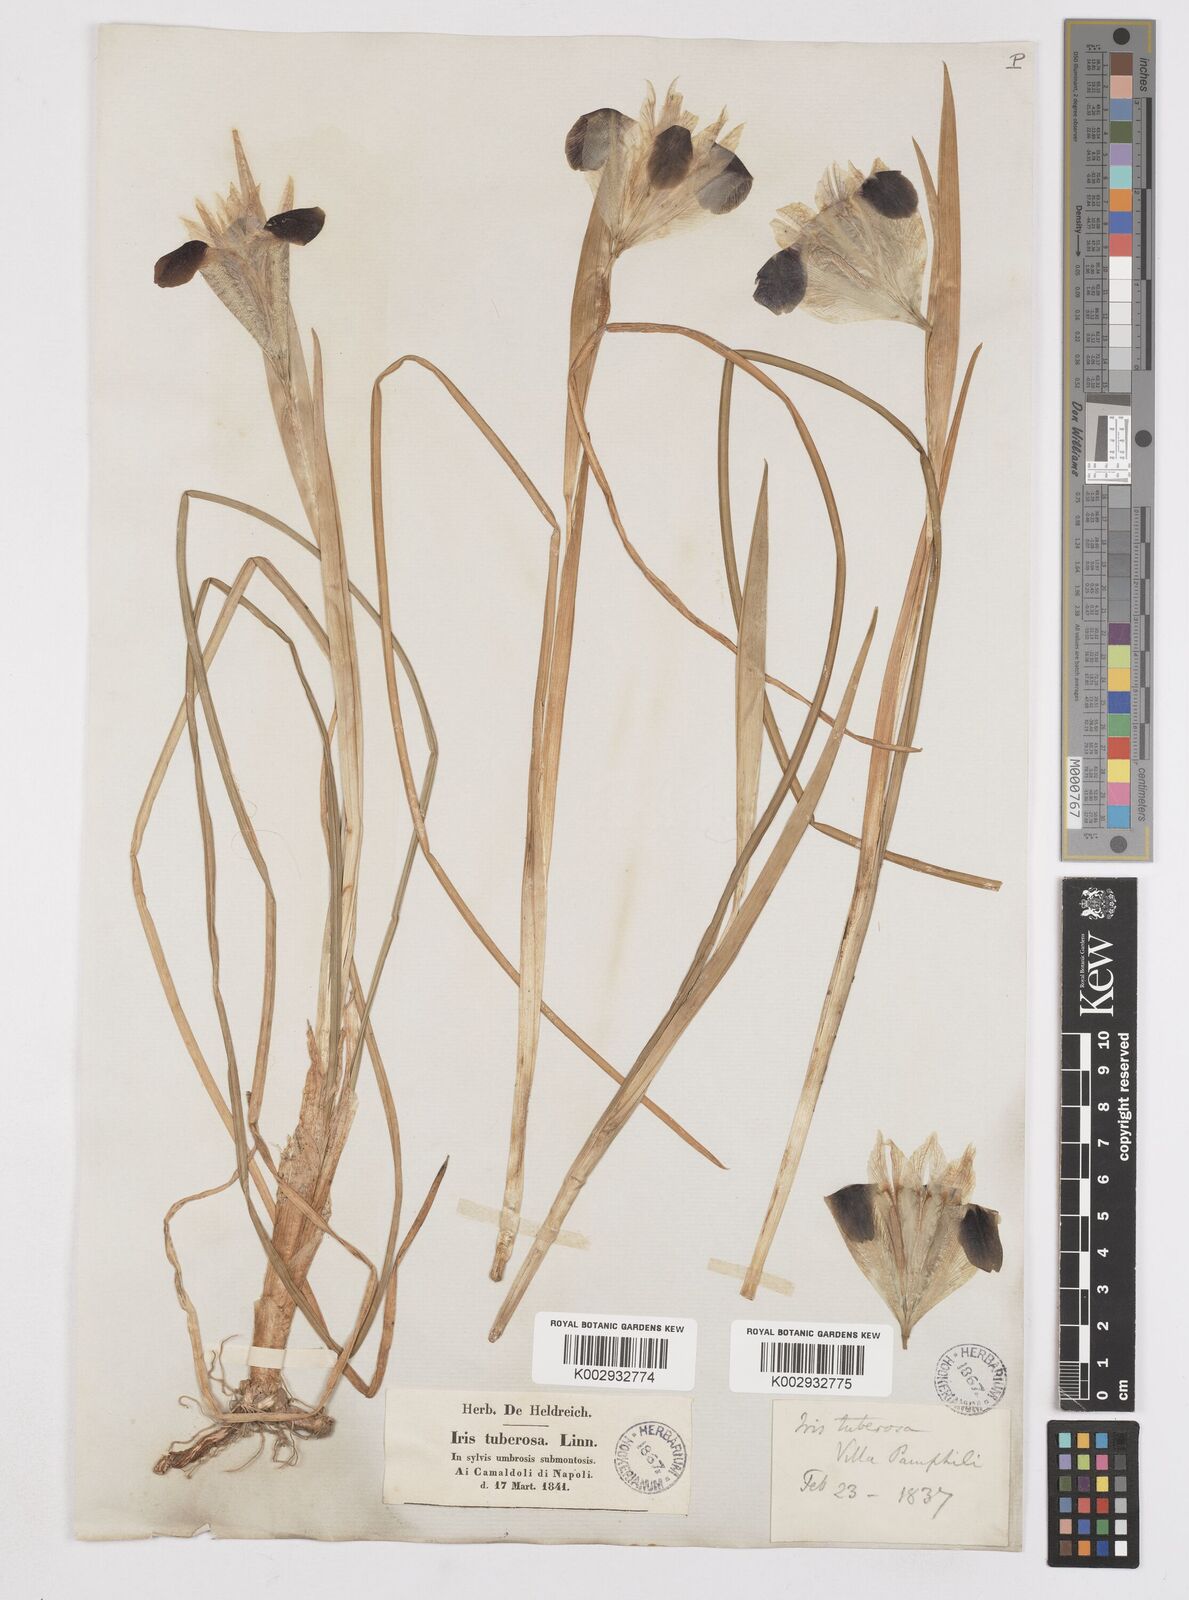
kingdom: Plantae
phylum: Tracheophyta
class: Liliopsida
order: Asparagales
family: Iridaceae
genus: Iris
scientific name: Iris tuberosa
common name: Snake's-head iris
